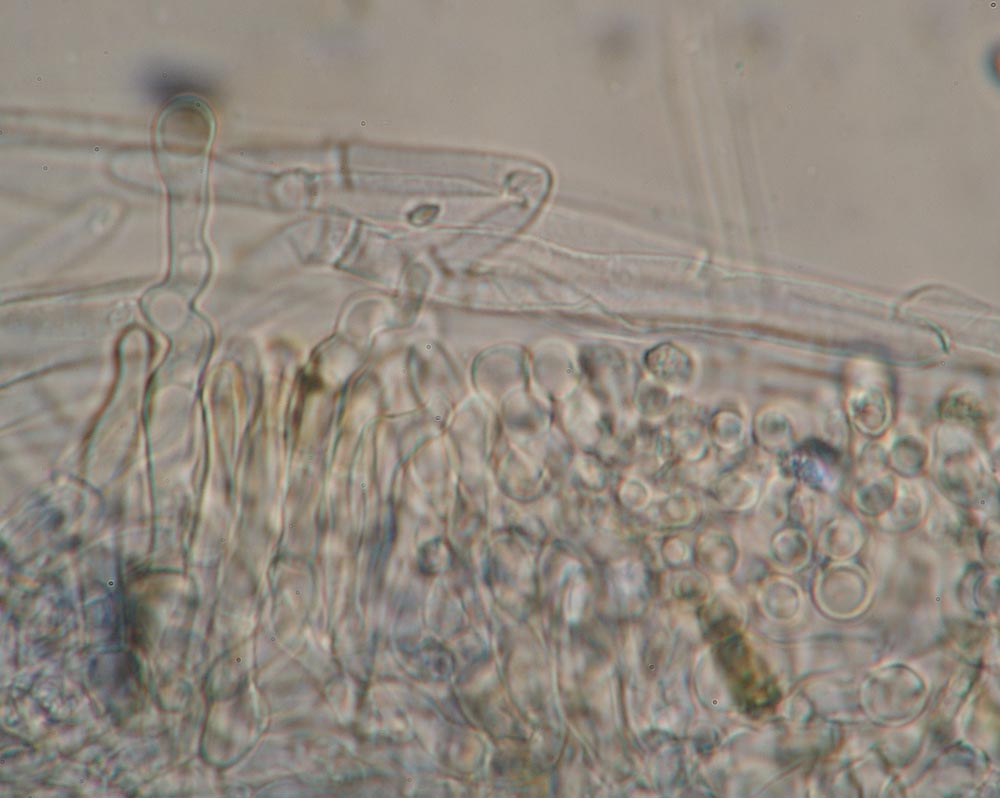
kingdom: Fungi
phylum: Basidiomycota
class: Agaricomycetes
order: Agaricales
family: Crepidotaceae
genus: Simocybe
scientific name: Simocybe centunculus
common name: enlig skyggehat
